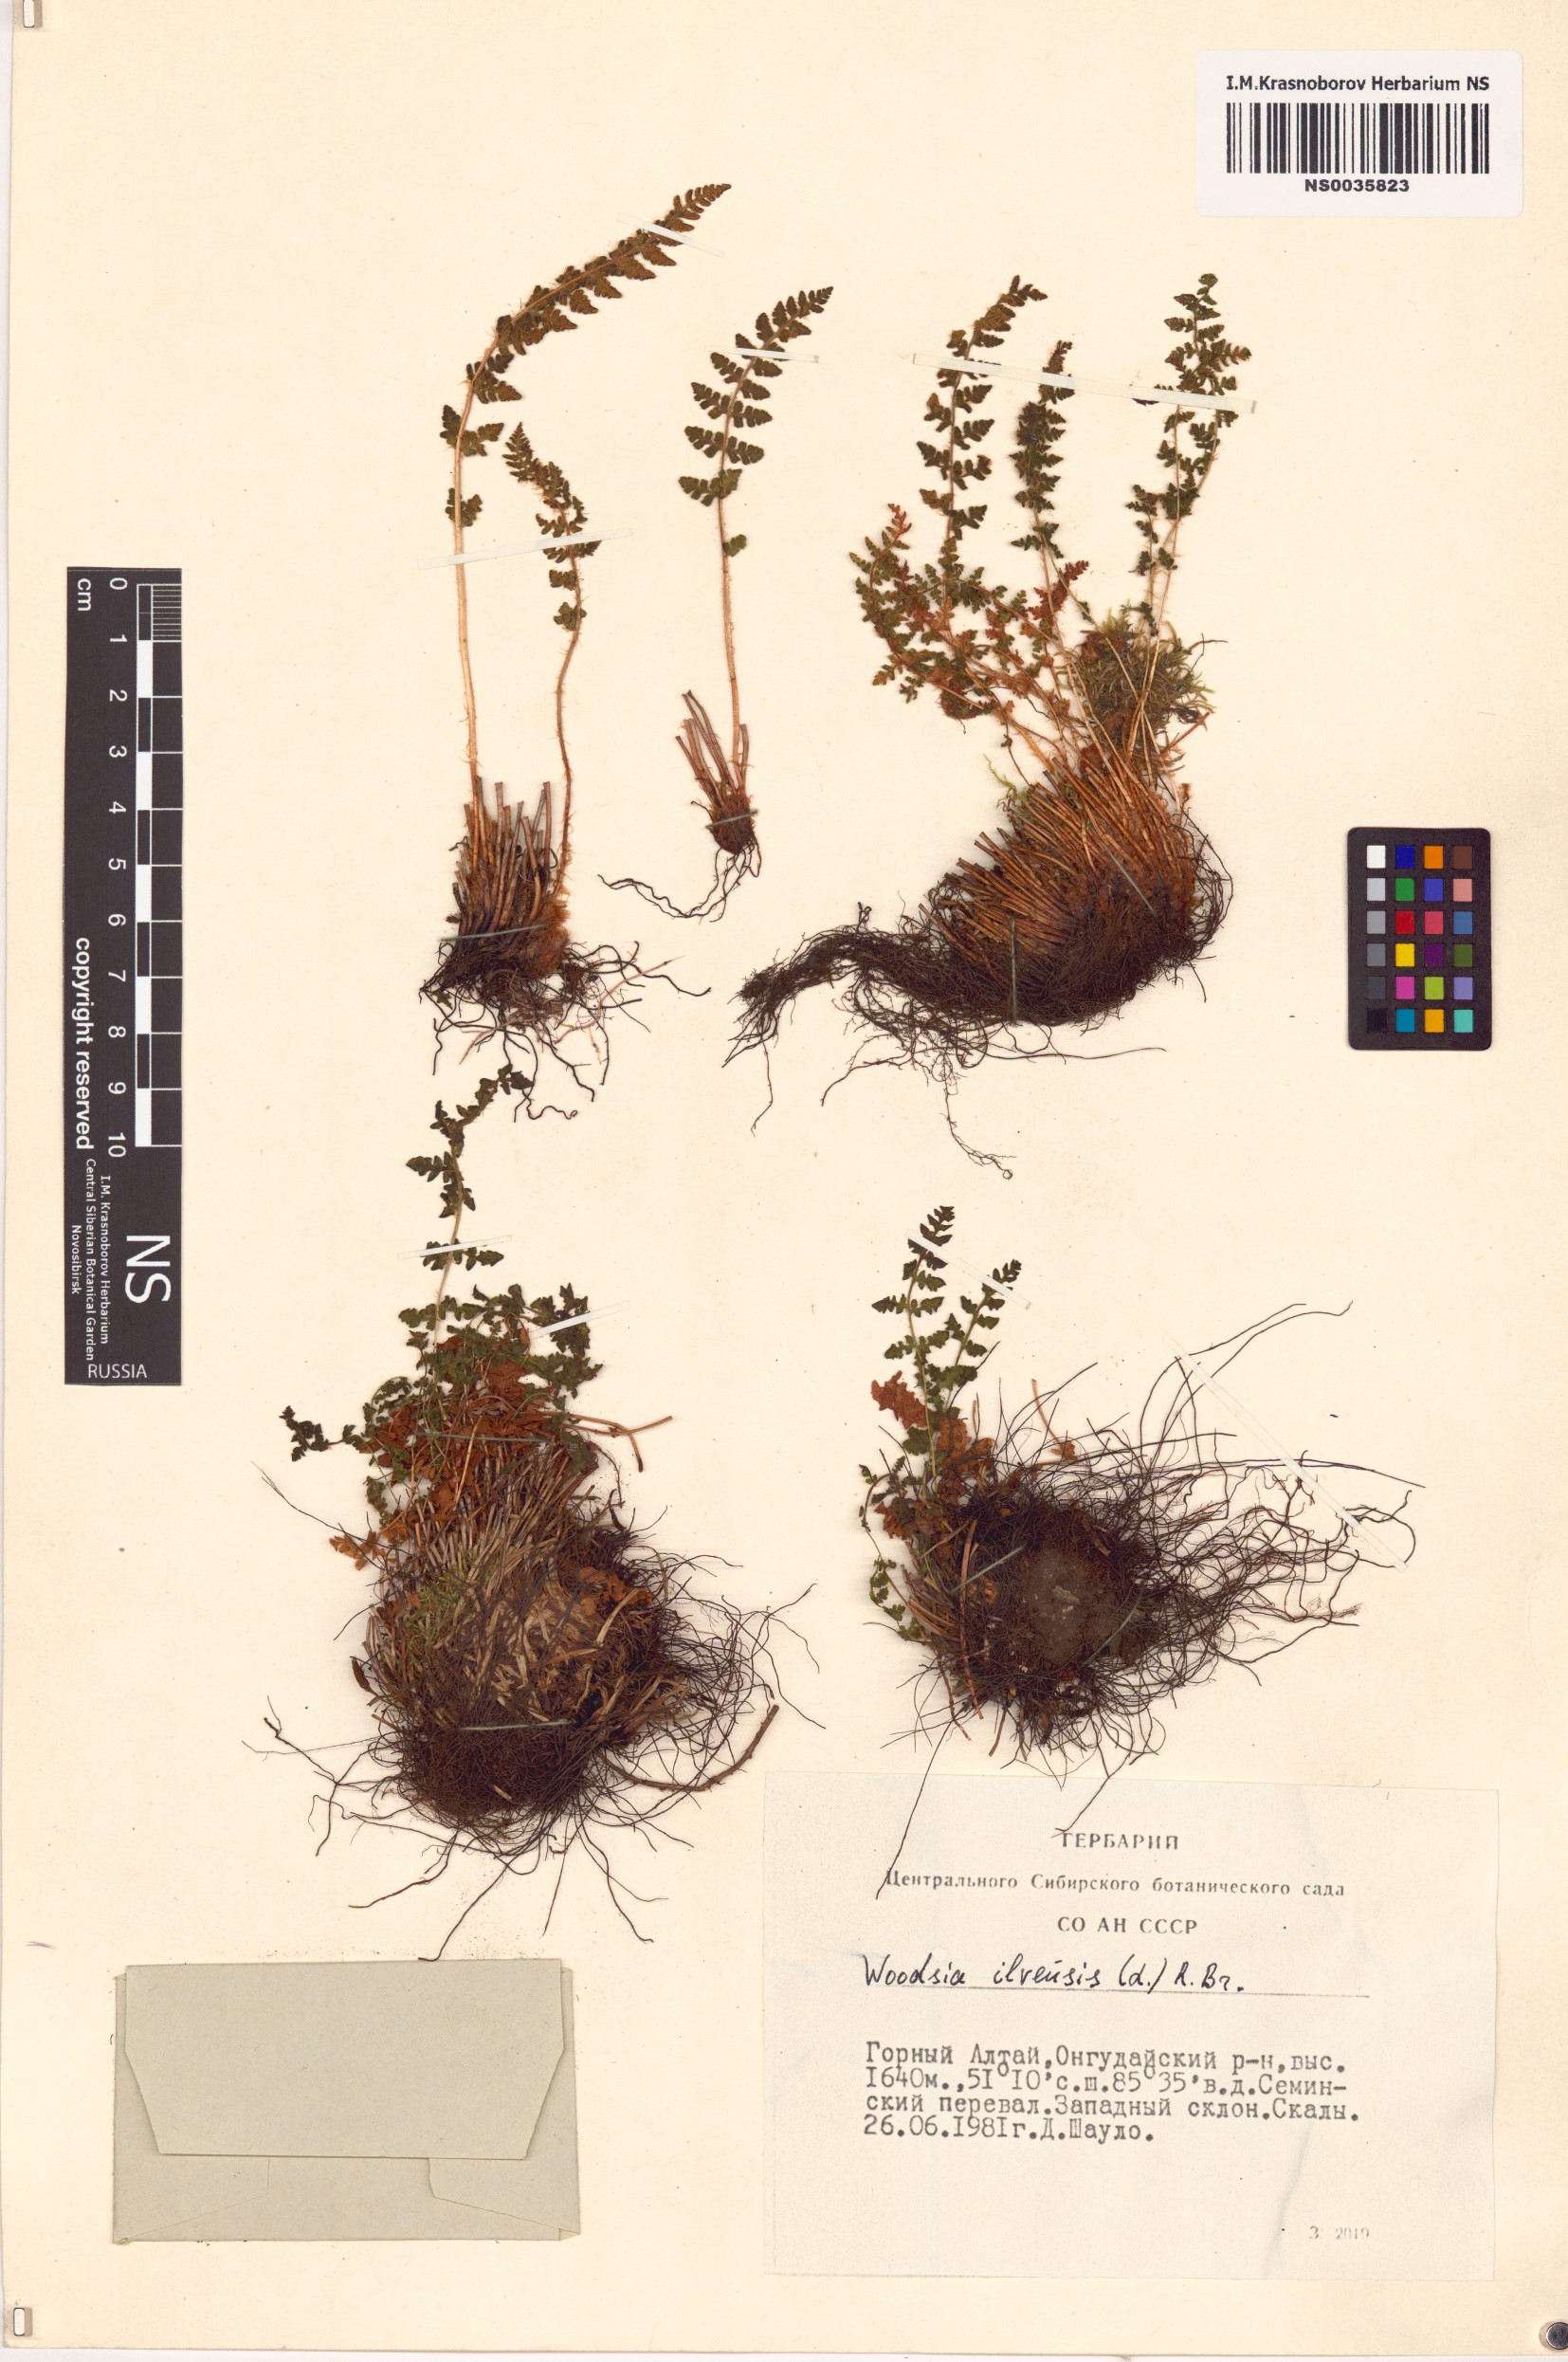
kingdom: Plantae
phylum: Tracheophyta
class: Polypodiopsida
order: Polypodiales
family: Woodsiaceae
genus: Woodsia
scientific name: Woodsia ilvensis
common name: Fragrant woodsia
